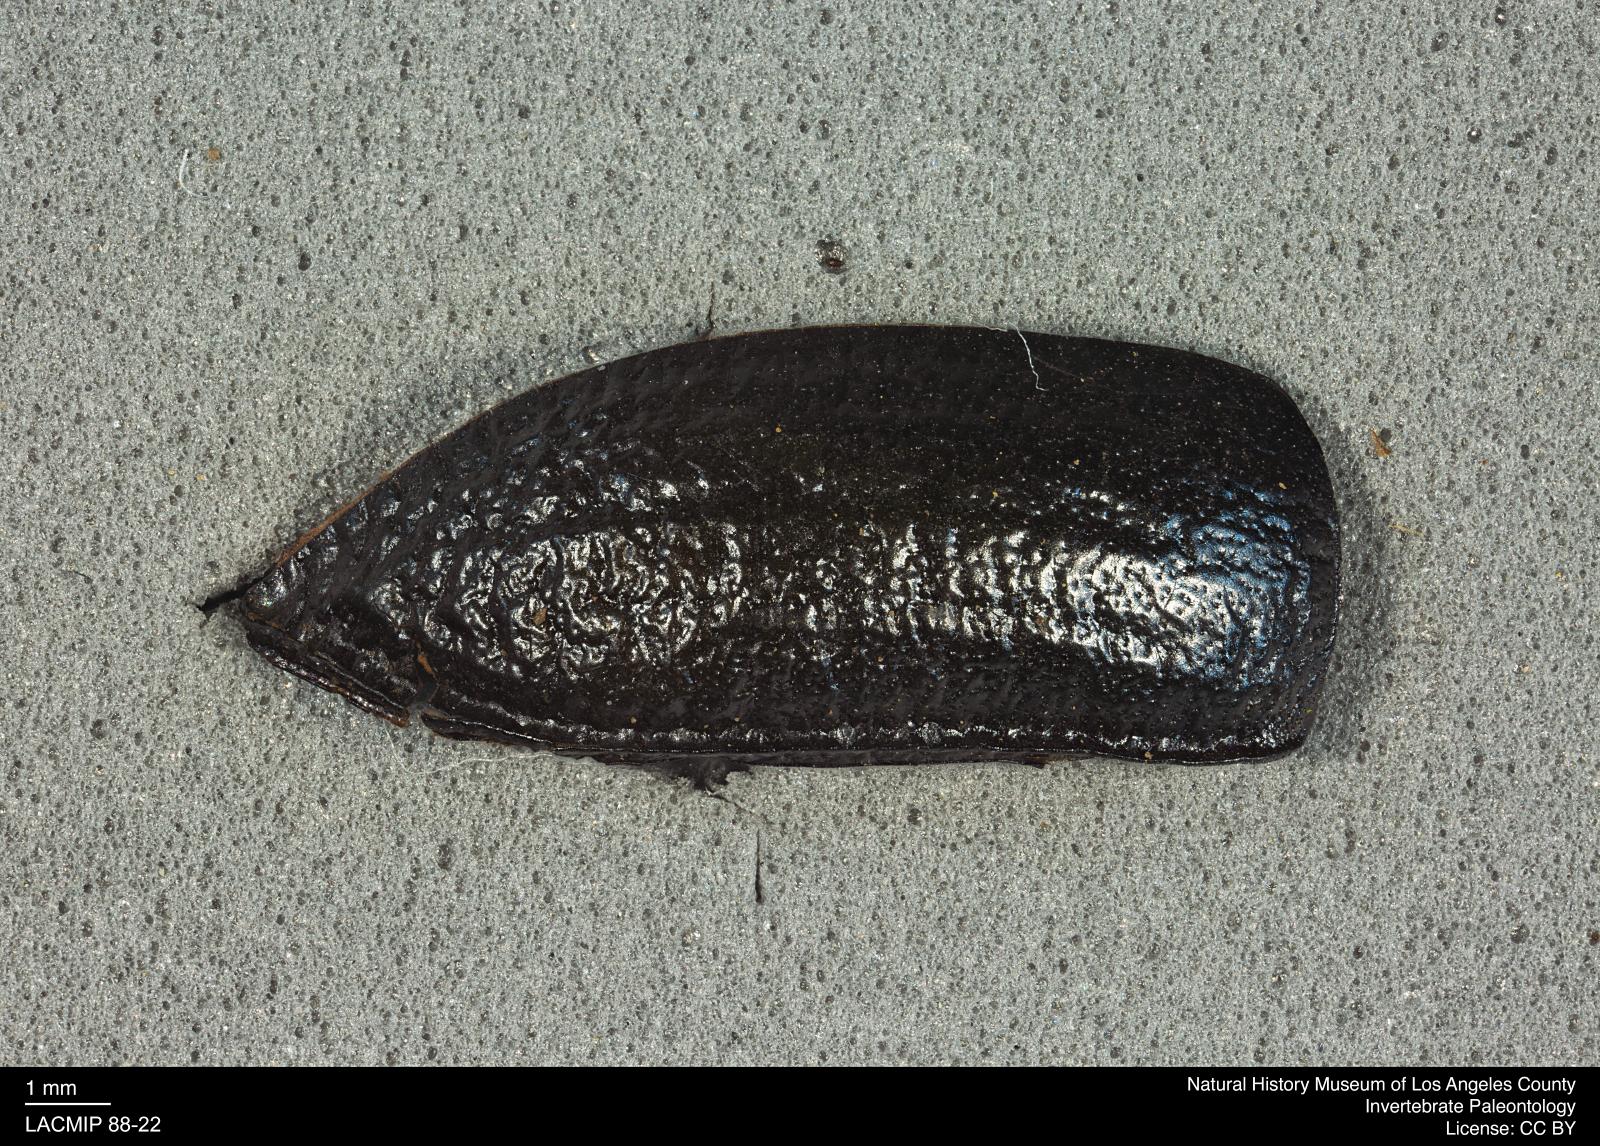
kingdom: Animalia
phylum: Arthropoda
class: Insecta
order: Coleoptera
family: Tenebrionidae
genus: Coniontis
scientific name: Coniontis abdominalis
